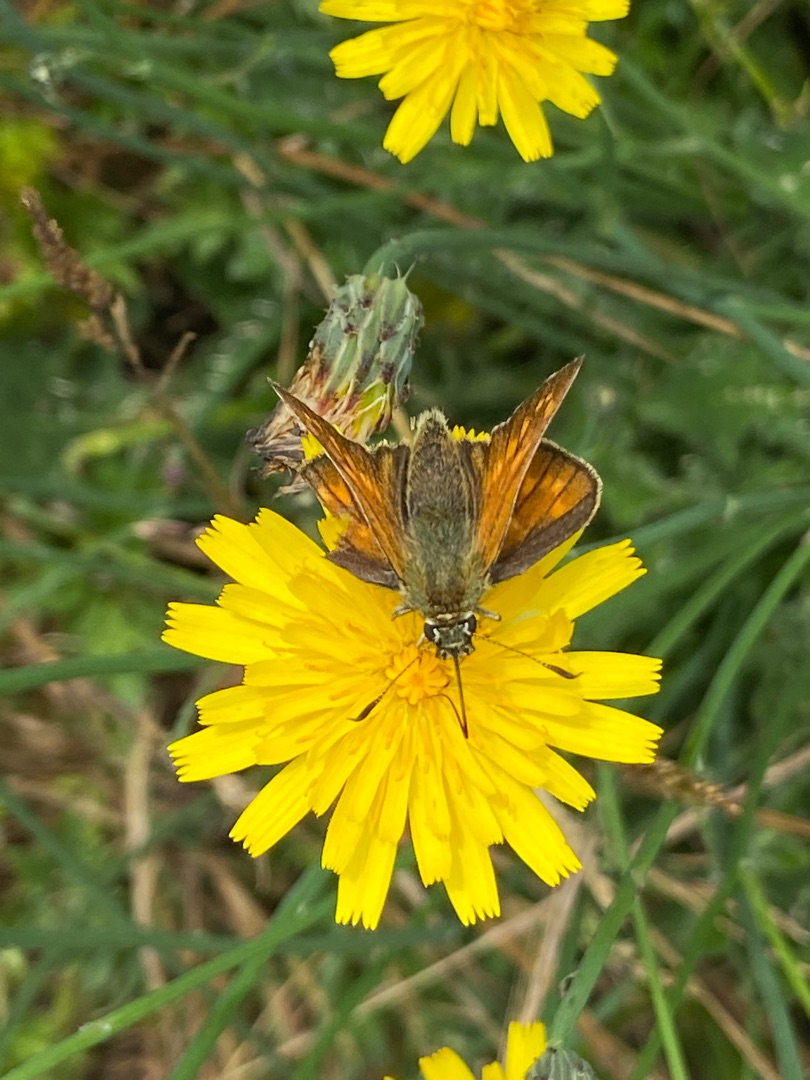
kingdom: Animalia
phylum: Arthropoda
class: Insecta
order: Lepidoptera
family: Hesperiidae
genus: Ochlodes
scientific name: Ochlodes venata
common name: Stor bredpande
